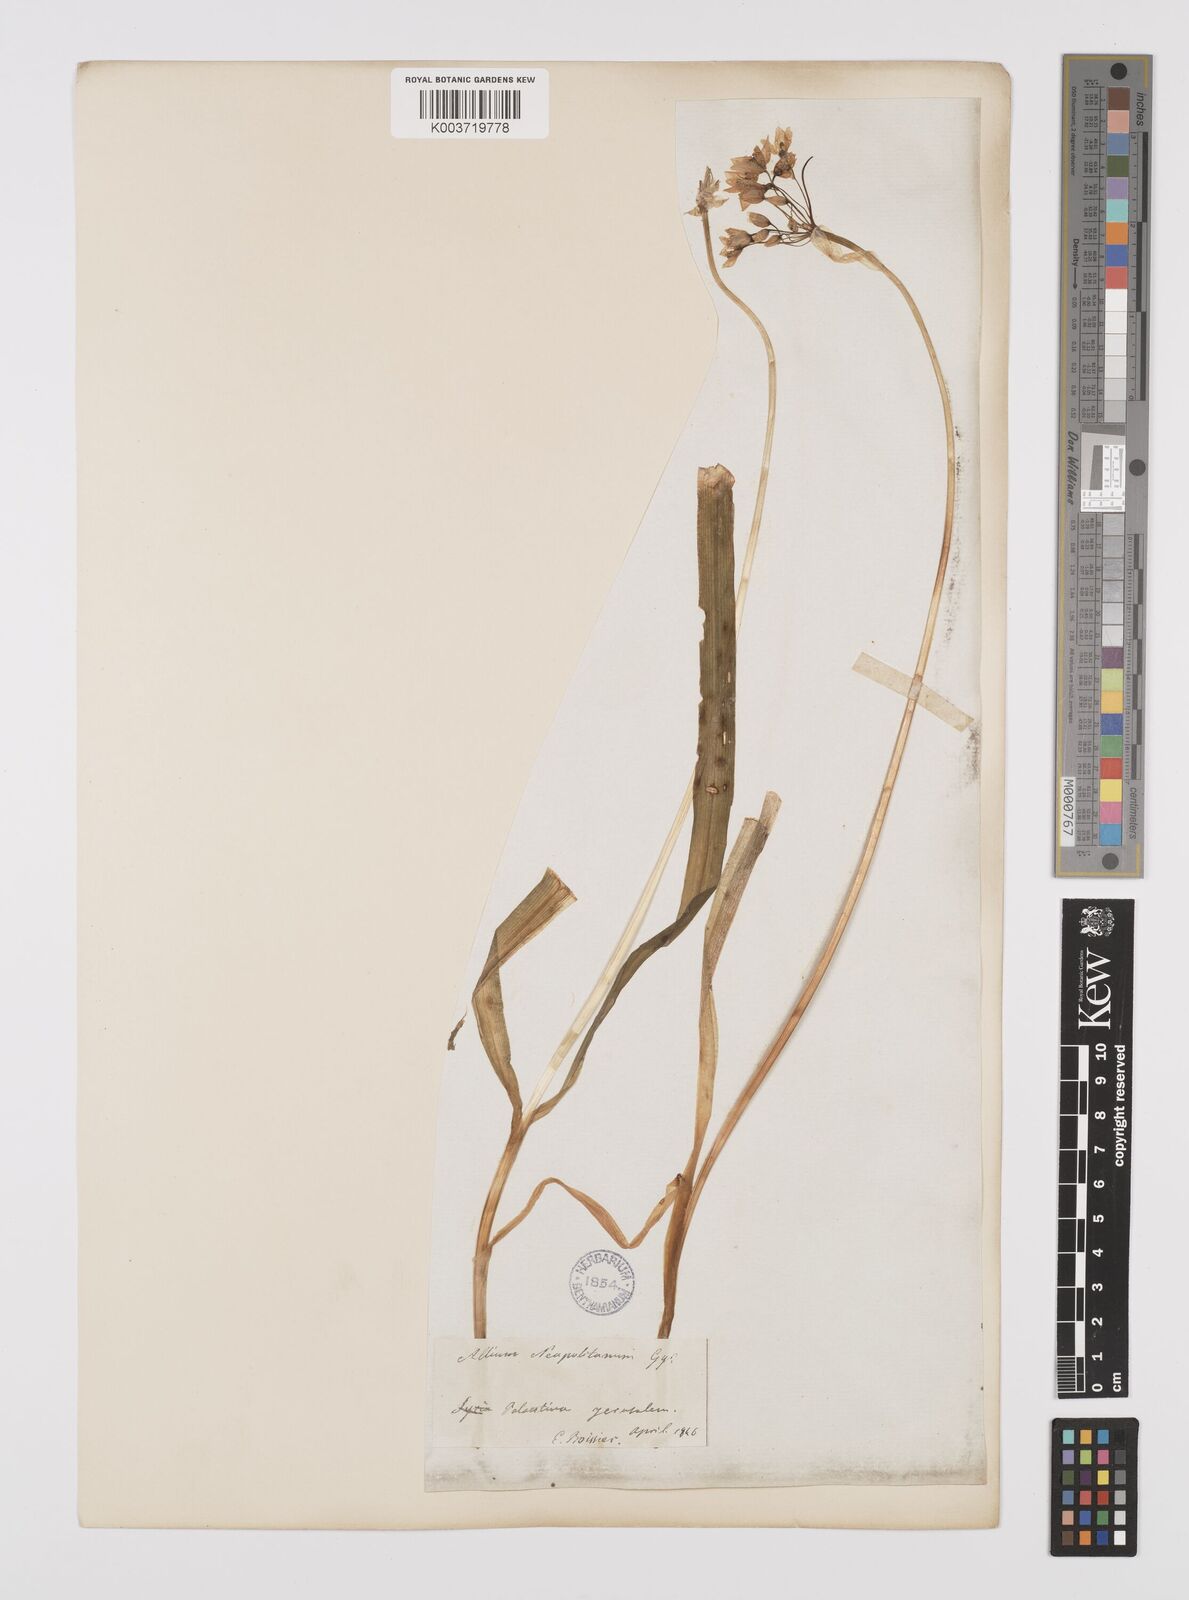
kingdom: Plantae
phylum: Tracheophyta
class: Liliopsida
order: Asparagales
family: Amaryllidaceae
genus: Allium
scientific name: Allium neapolitanum
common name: Neapolitan garlic
